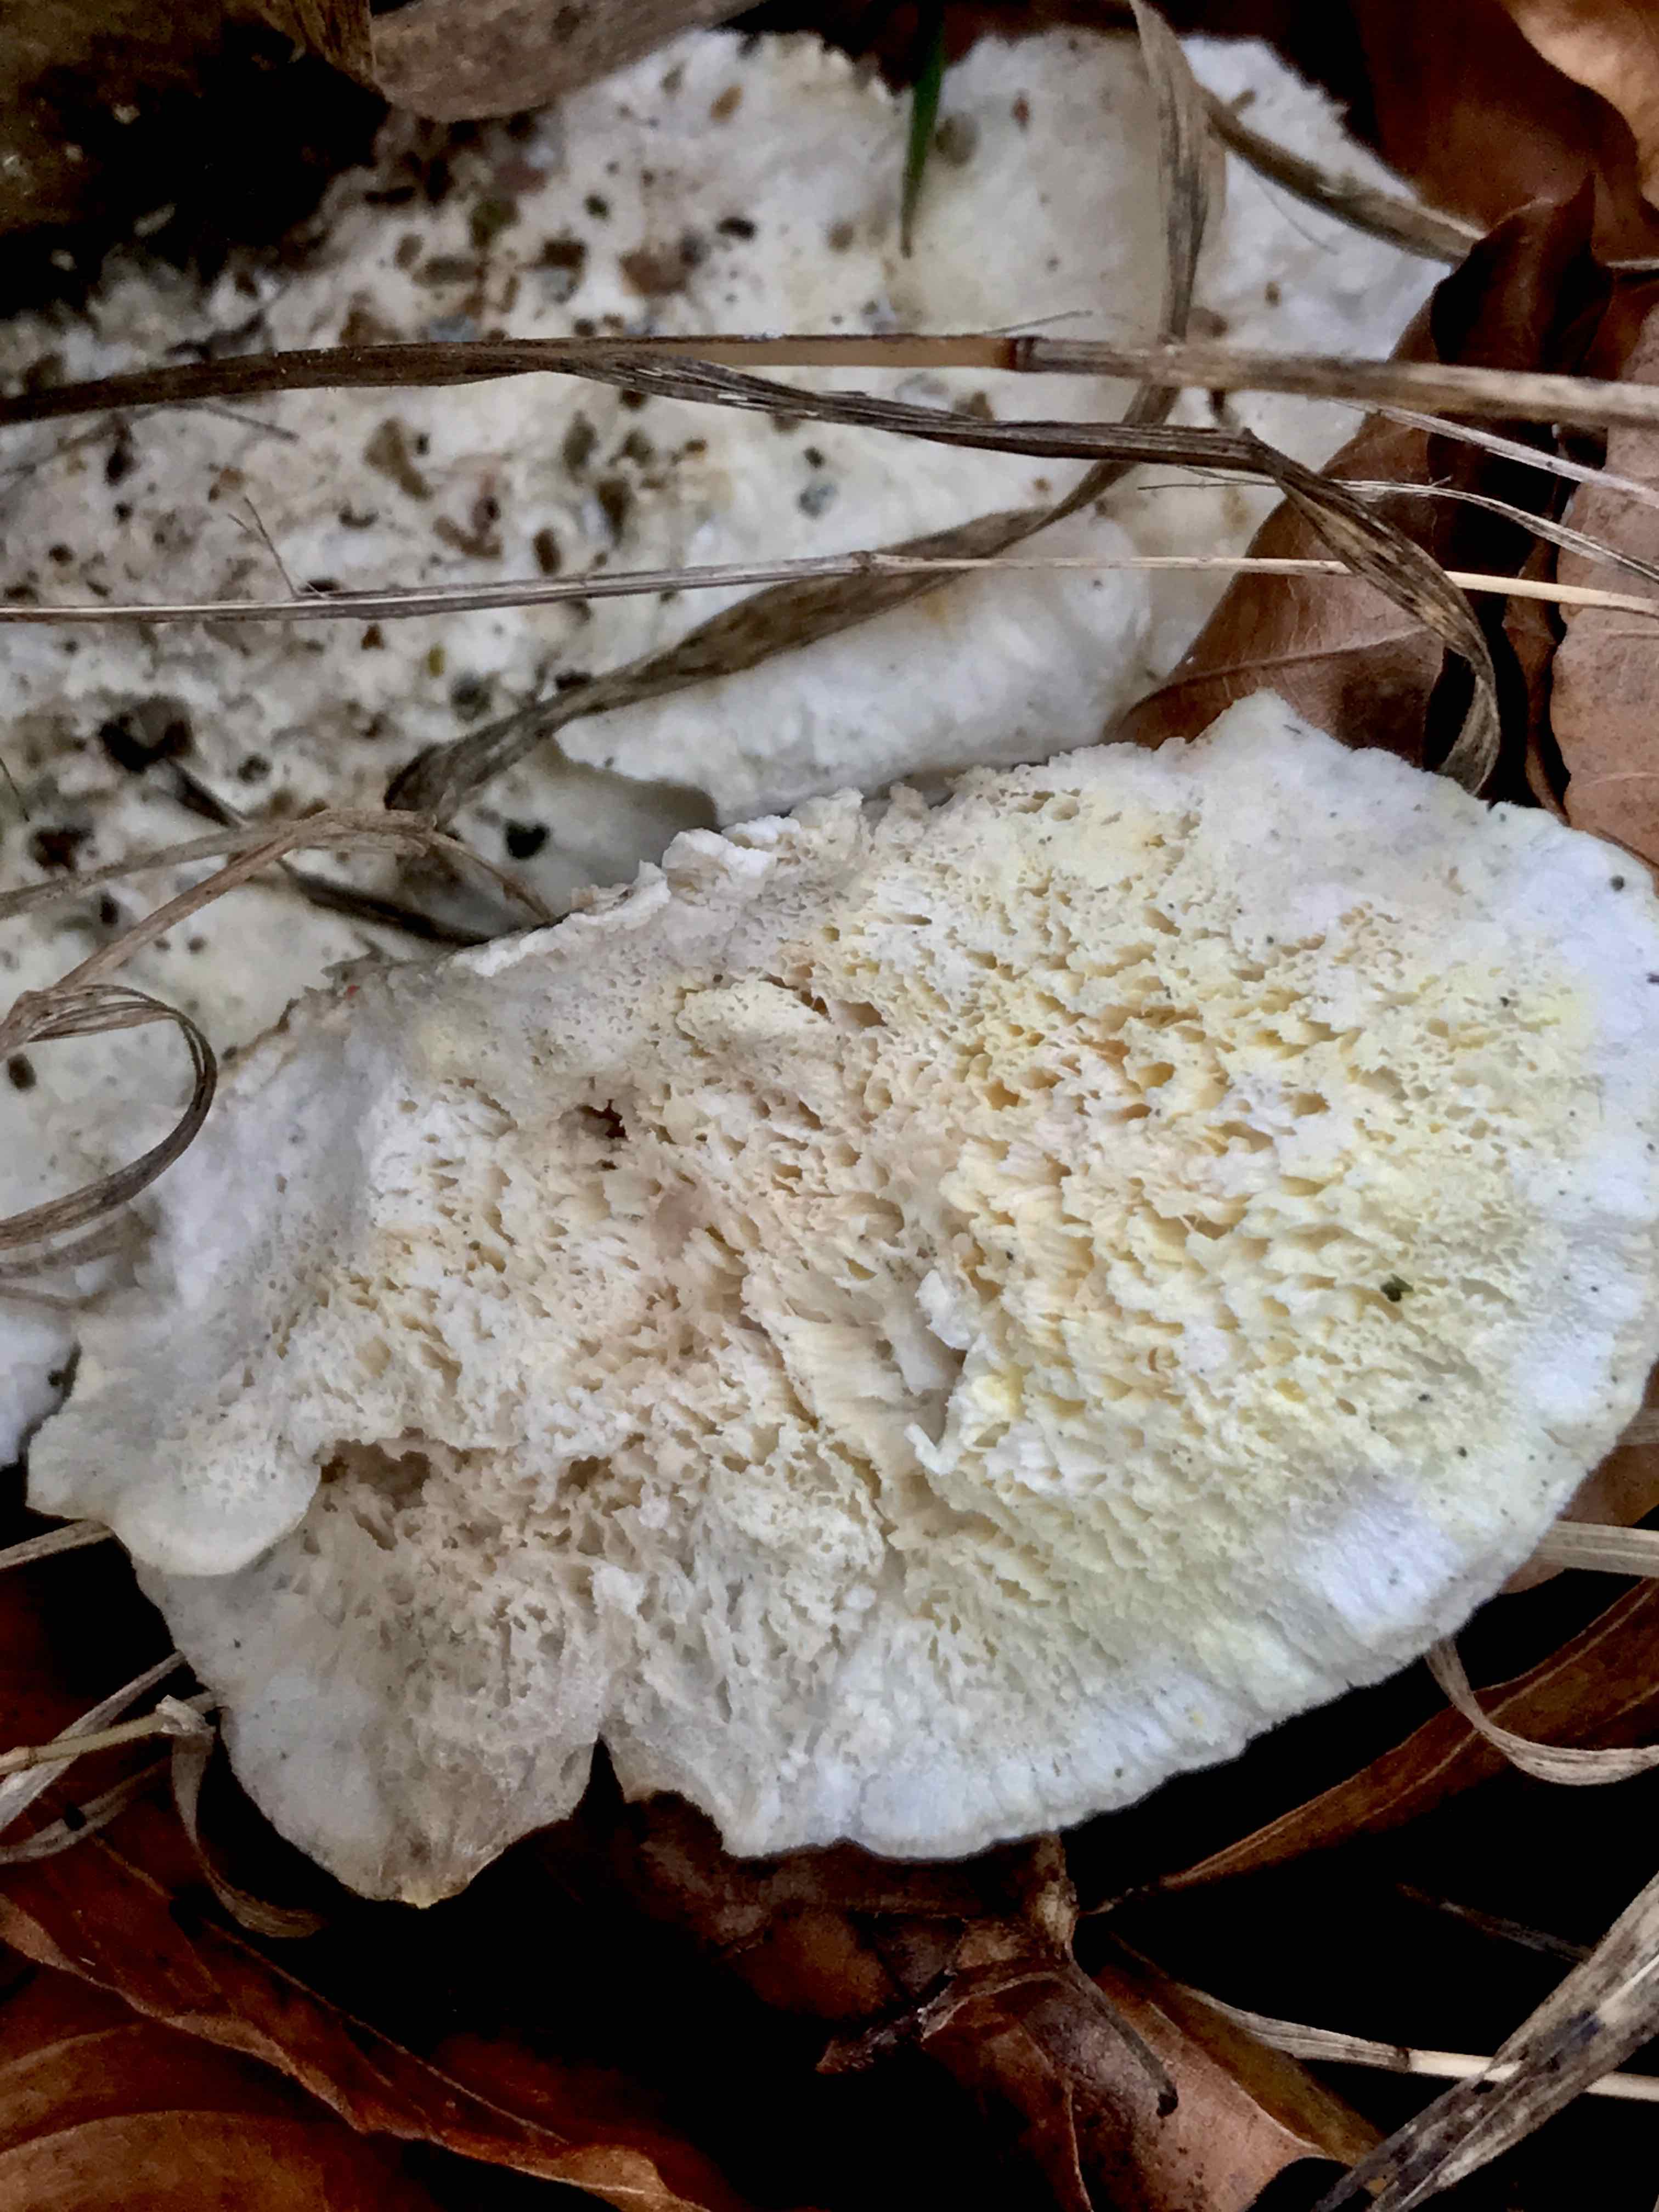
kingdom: Fungi
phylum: Basidiomycota
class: Agaricomycetes
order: Polyporales
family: Incrustoporiaceae
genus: Tyromyces
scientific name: Tyromyces lacteus
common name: mælkehvid kødporesvamp
